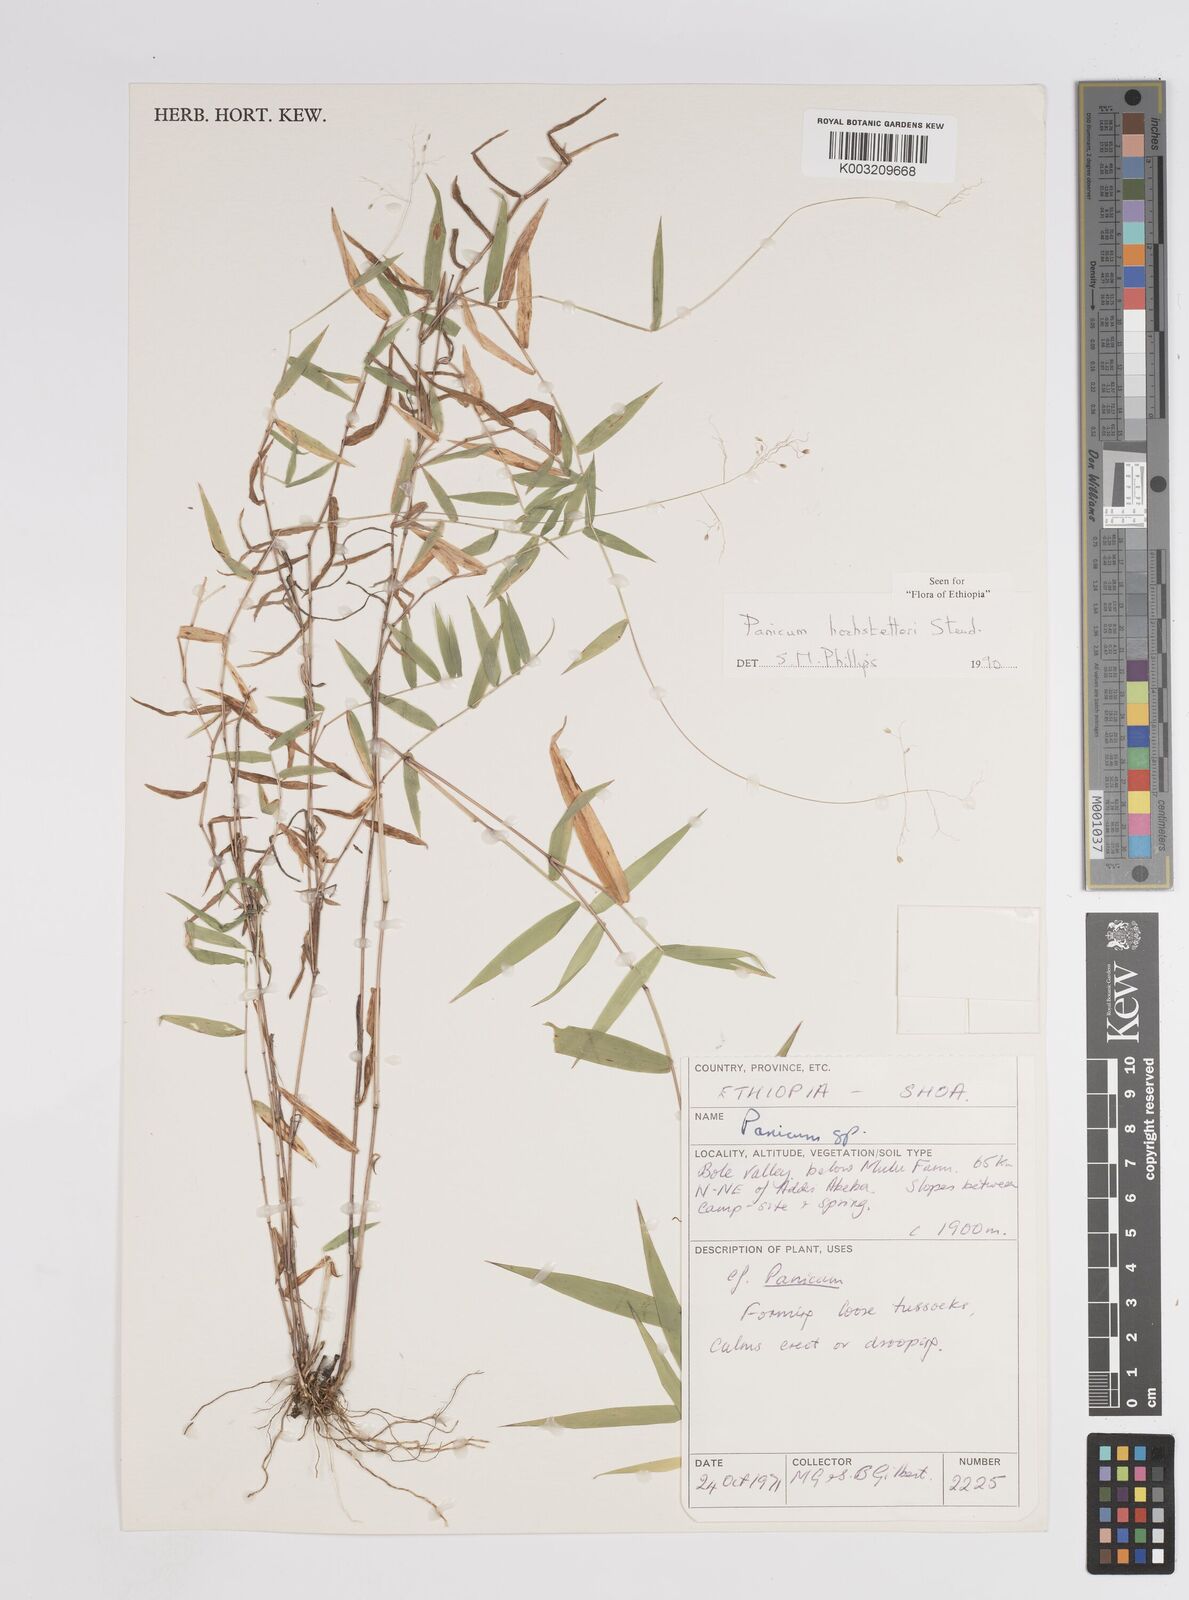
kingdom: Plantae
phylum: Tracheophyta
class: Liliopsida
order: Poales
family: Poaceae
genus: Panicum
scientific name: Panicum hochstetteri
